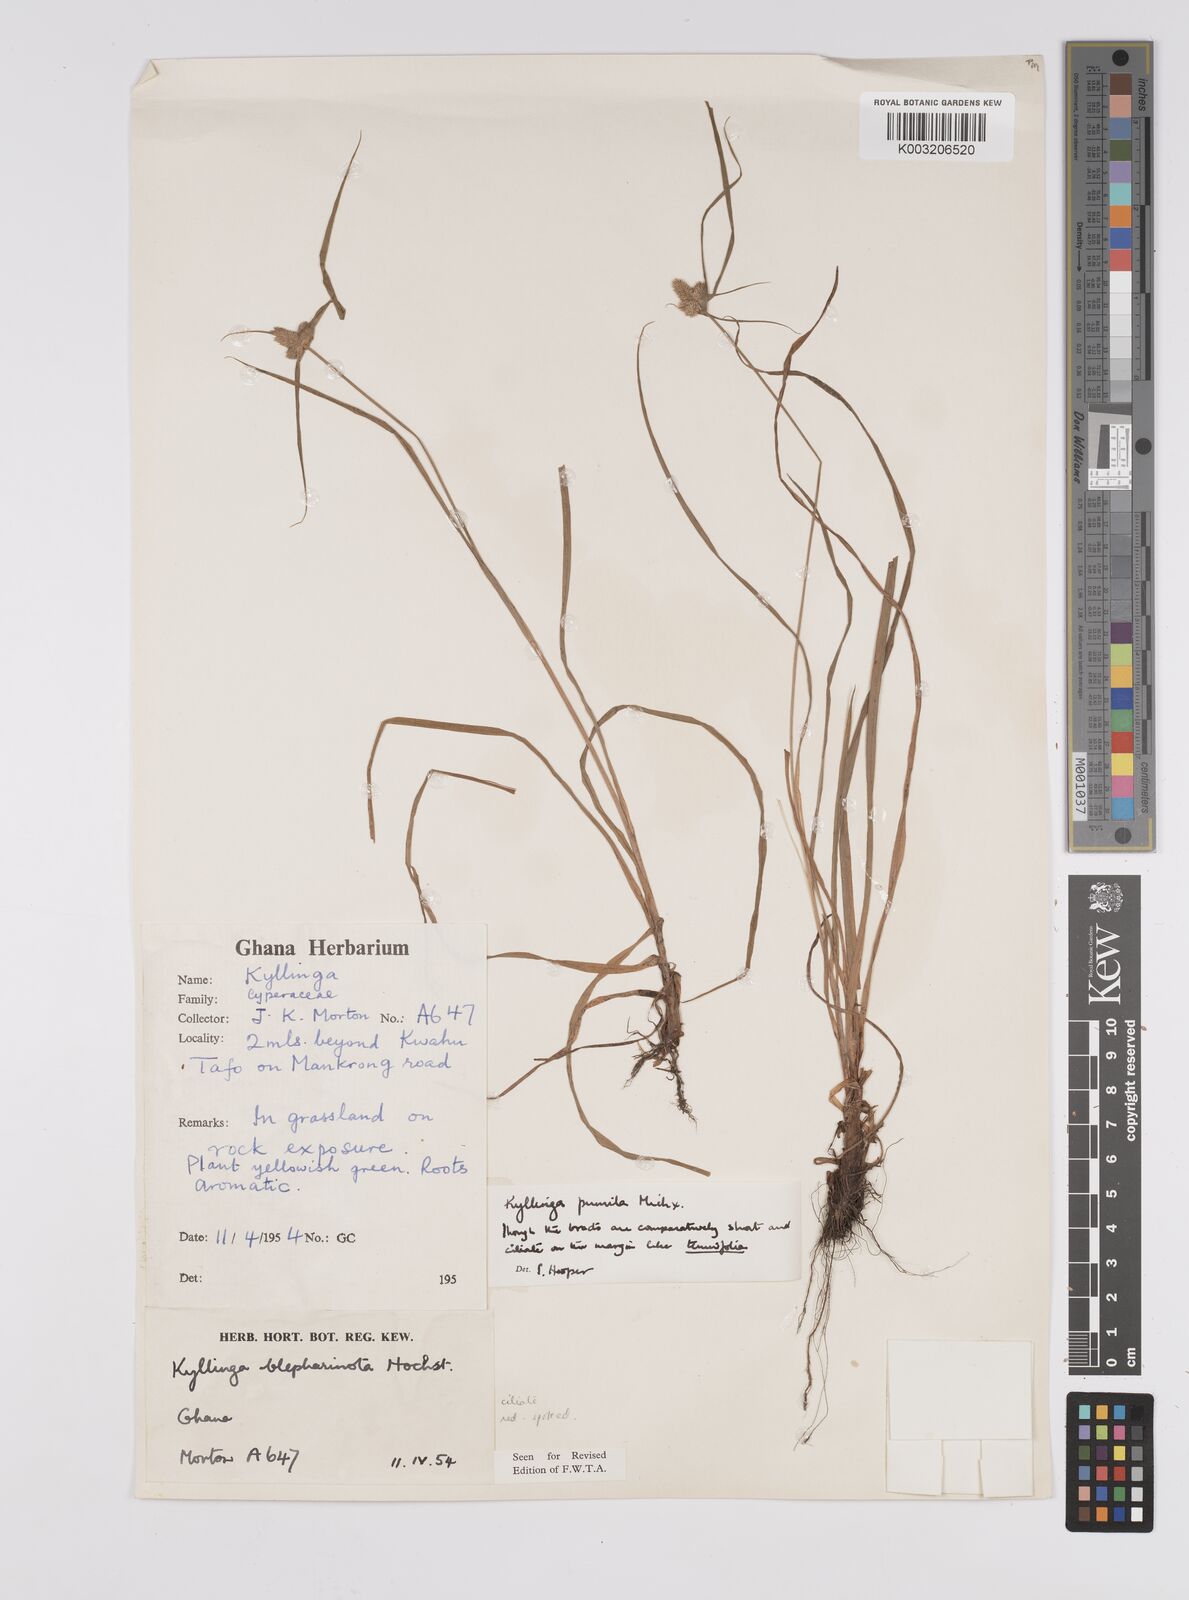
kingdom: Plantae
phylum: Tracheophyta
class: Liliopsida
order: Poales
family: Cyperaceae
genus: Cyperus
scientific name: Cyperus
